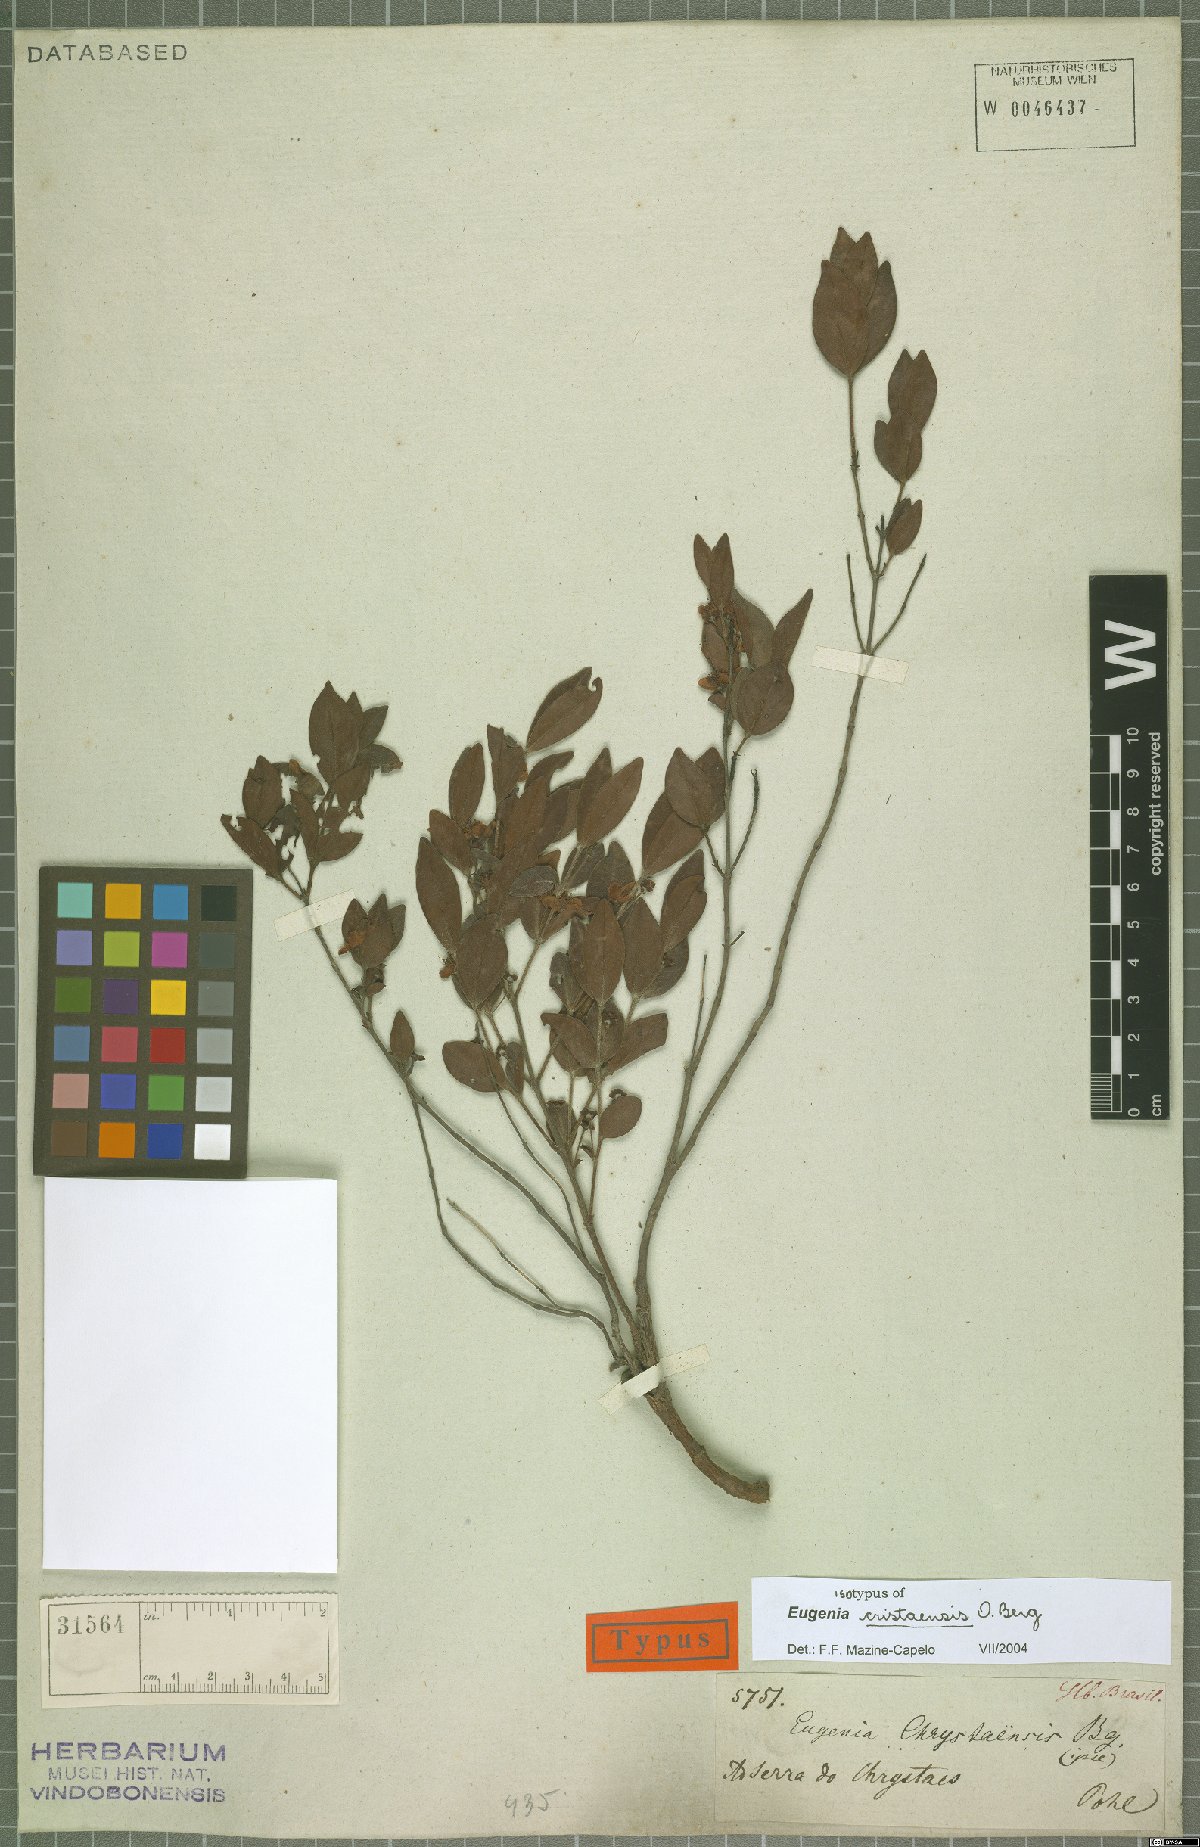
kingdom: Plantae
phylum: Tracheophyta
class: Magnoliopsida
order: Myrtales
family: Myrtaceae
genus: Eugenia
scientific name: Eugenia cristaensis
